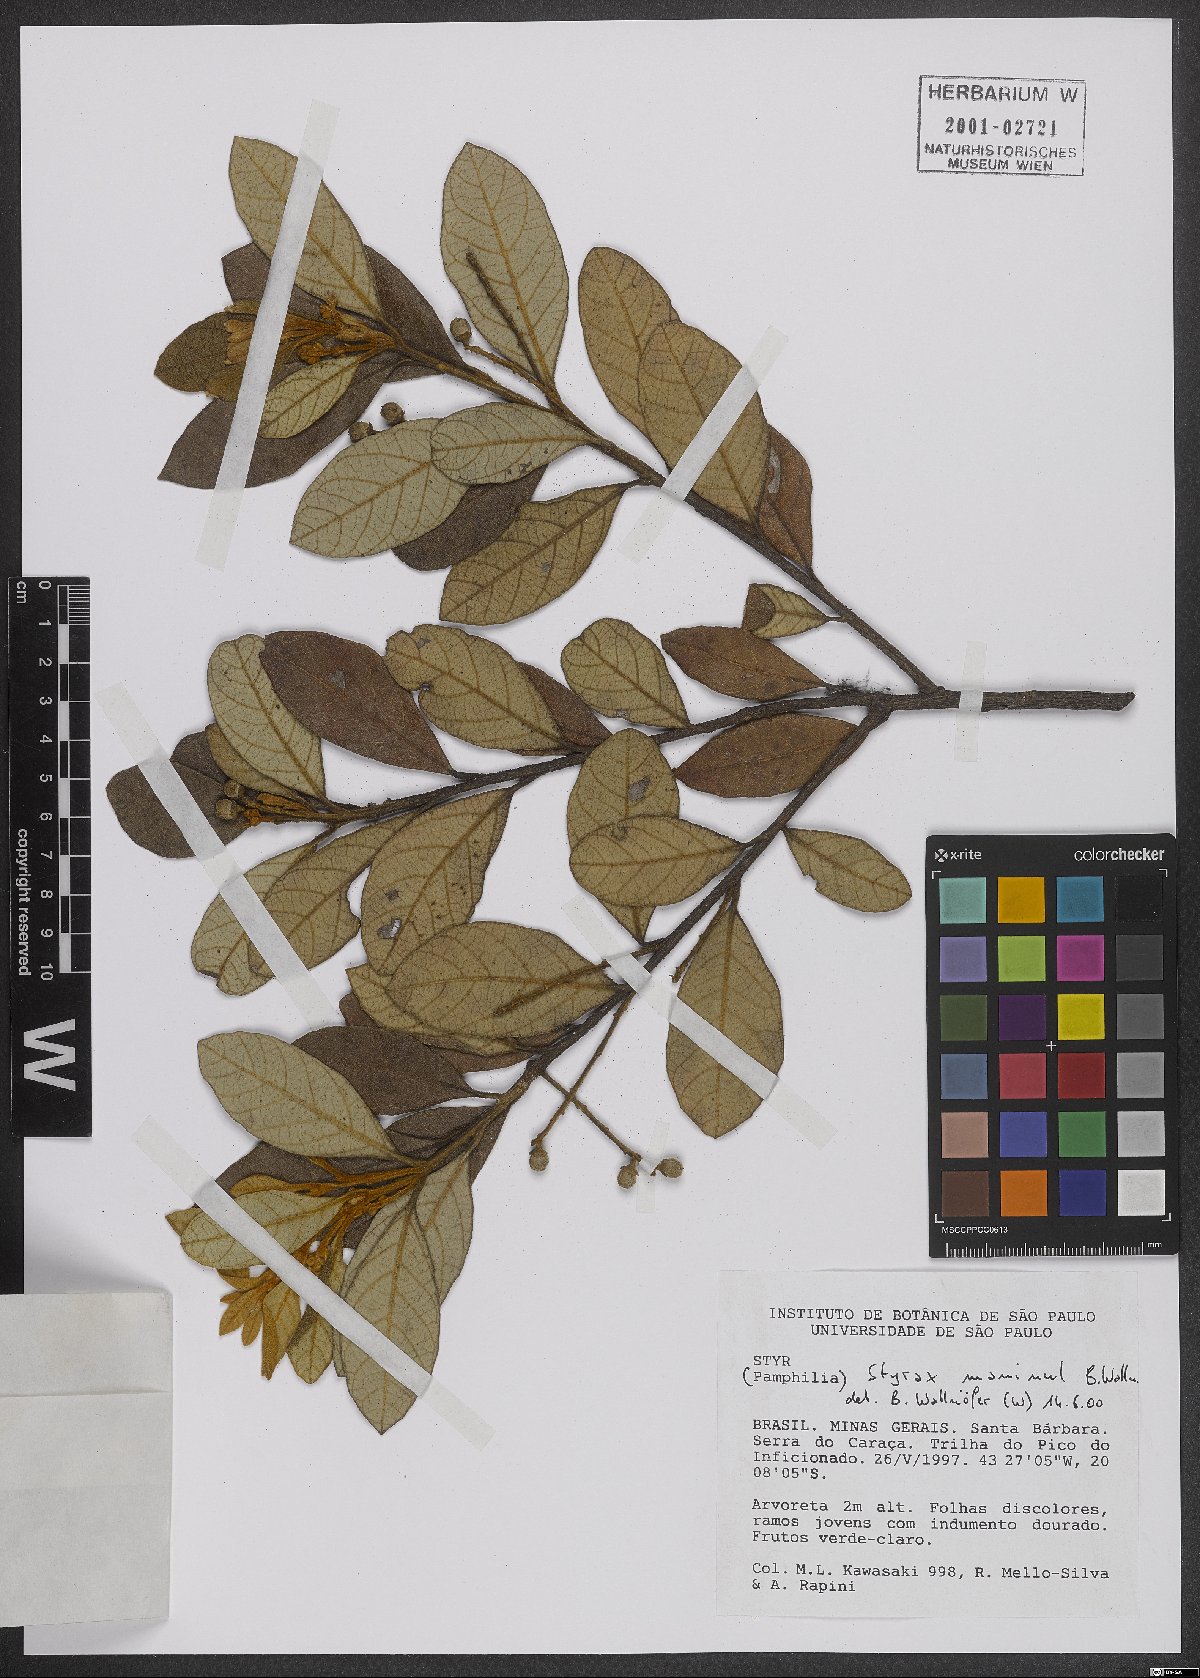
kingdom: Plantae
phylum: Tracheophyta
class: Magnoliopsida
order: Ericales
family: Styracaceae
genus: Styrax
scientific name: Styrax maninul
